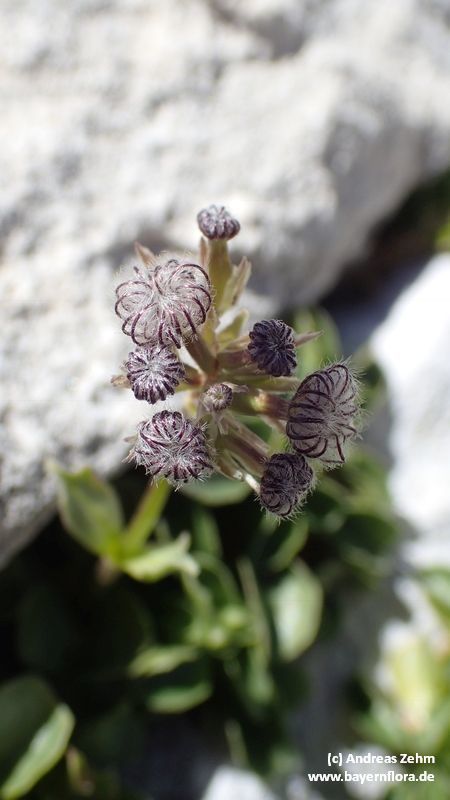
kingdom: Plantae
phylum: Tracheophyta
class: Magnoliopsida
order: Dipsacales
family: Caprifoliaceae
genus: Valeriana
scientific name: Valeriana supina
